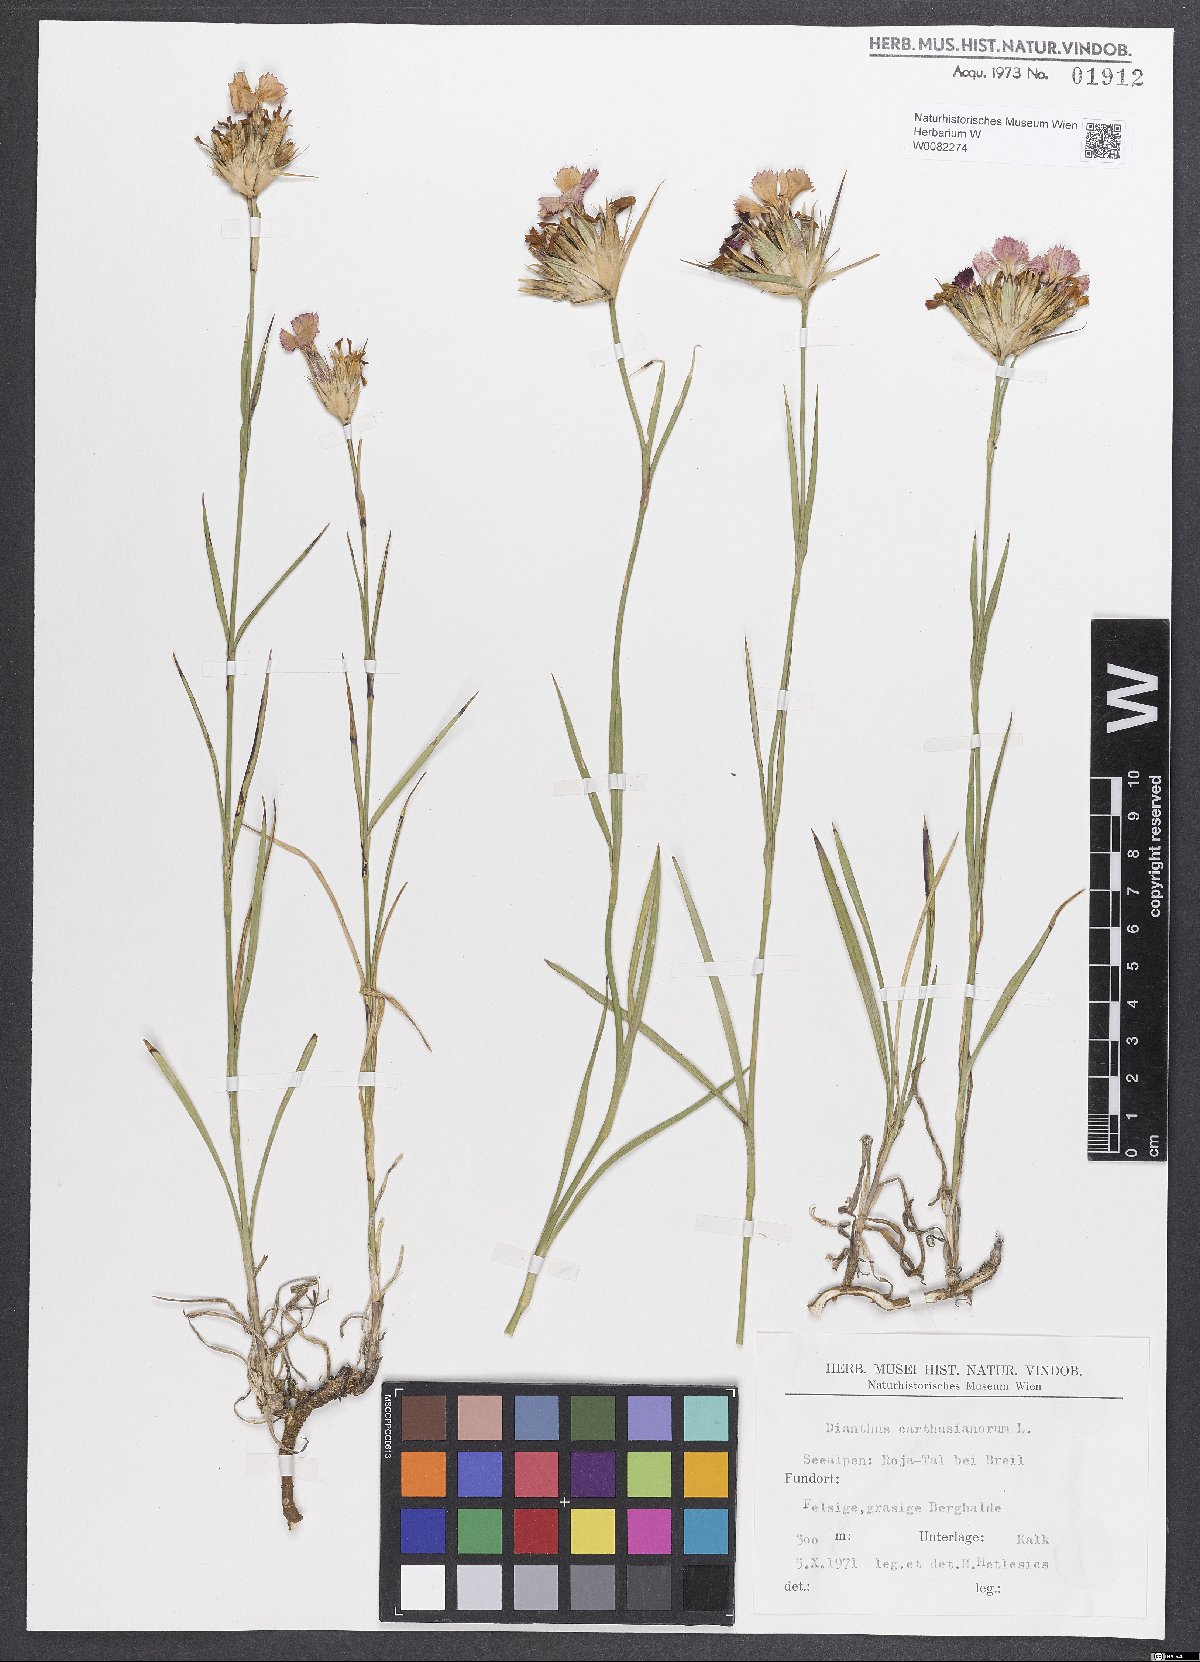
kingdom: Plantae
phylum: Tracheophyta
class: Magnoliopsida
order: Caryophyllales
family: Caryophyllaceae
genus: Dianthus
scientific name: Dianthus carthusianorum
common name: Carthusian pink
